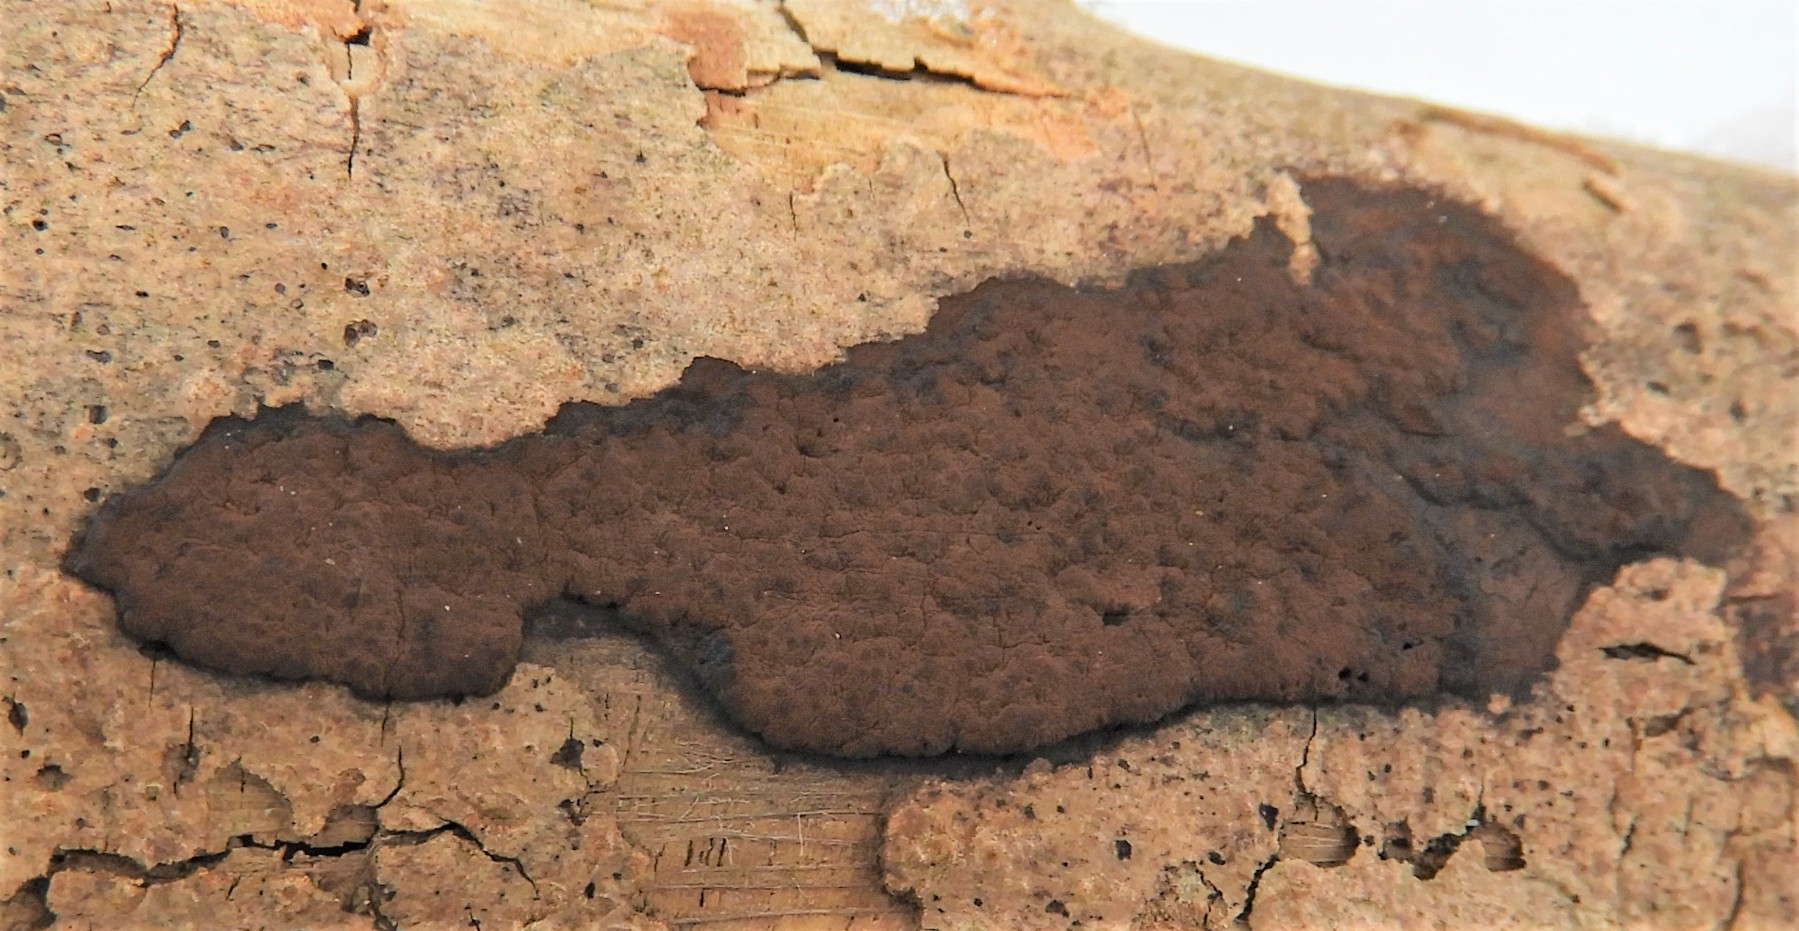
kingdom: Fungi
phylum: Ascomycota
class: Sordariomycetes
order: Xylariales
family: Hypoxylaceae
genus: Hypoxylon
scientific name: Hypoxylon petriniae
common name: nedsænket kulbær
